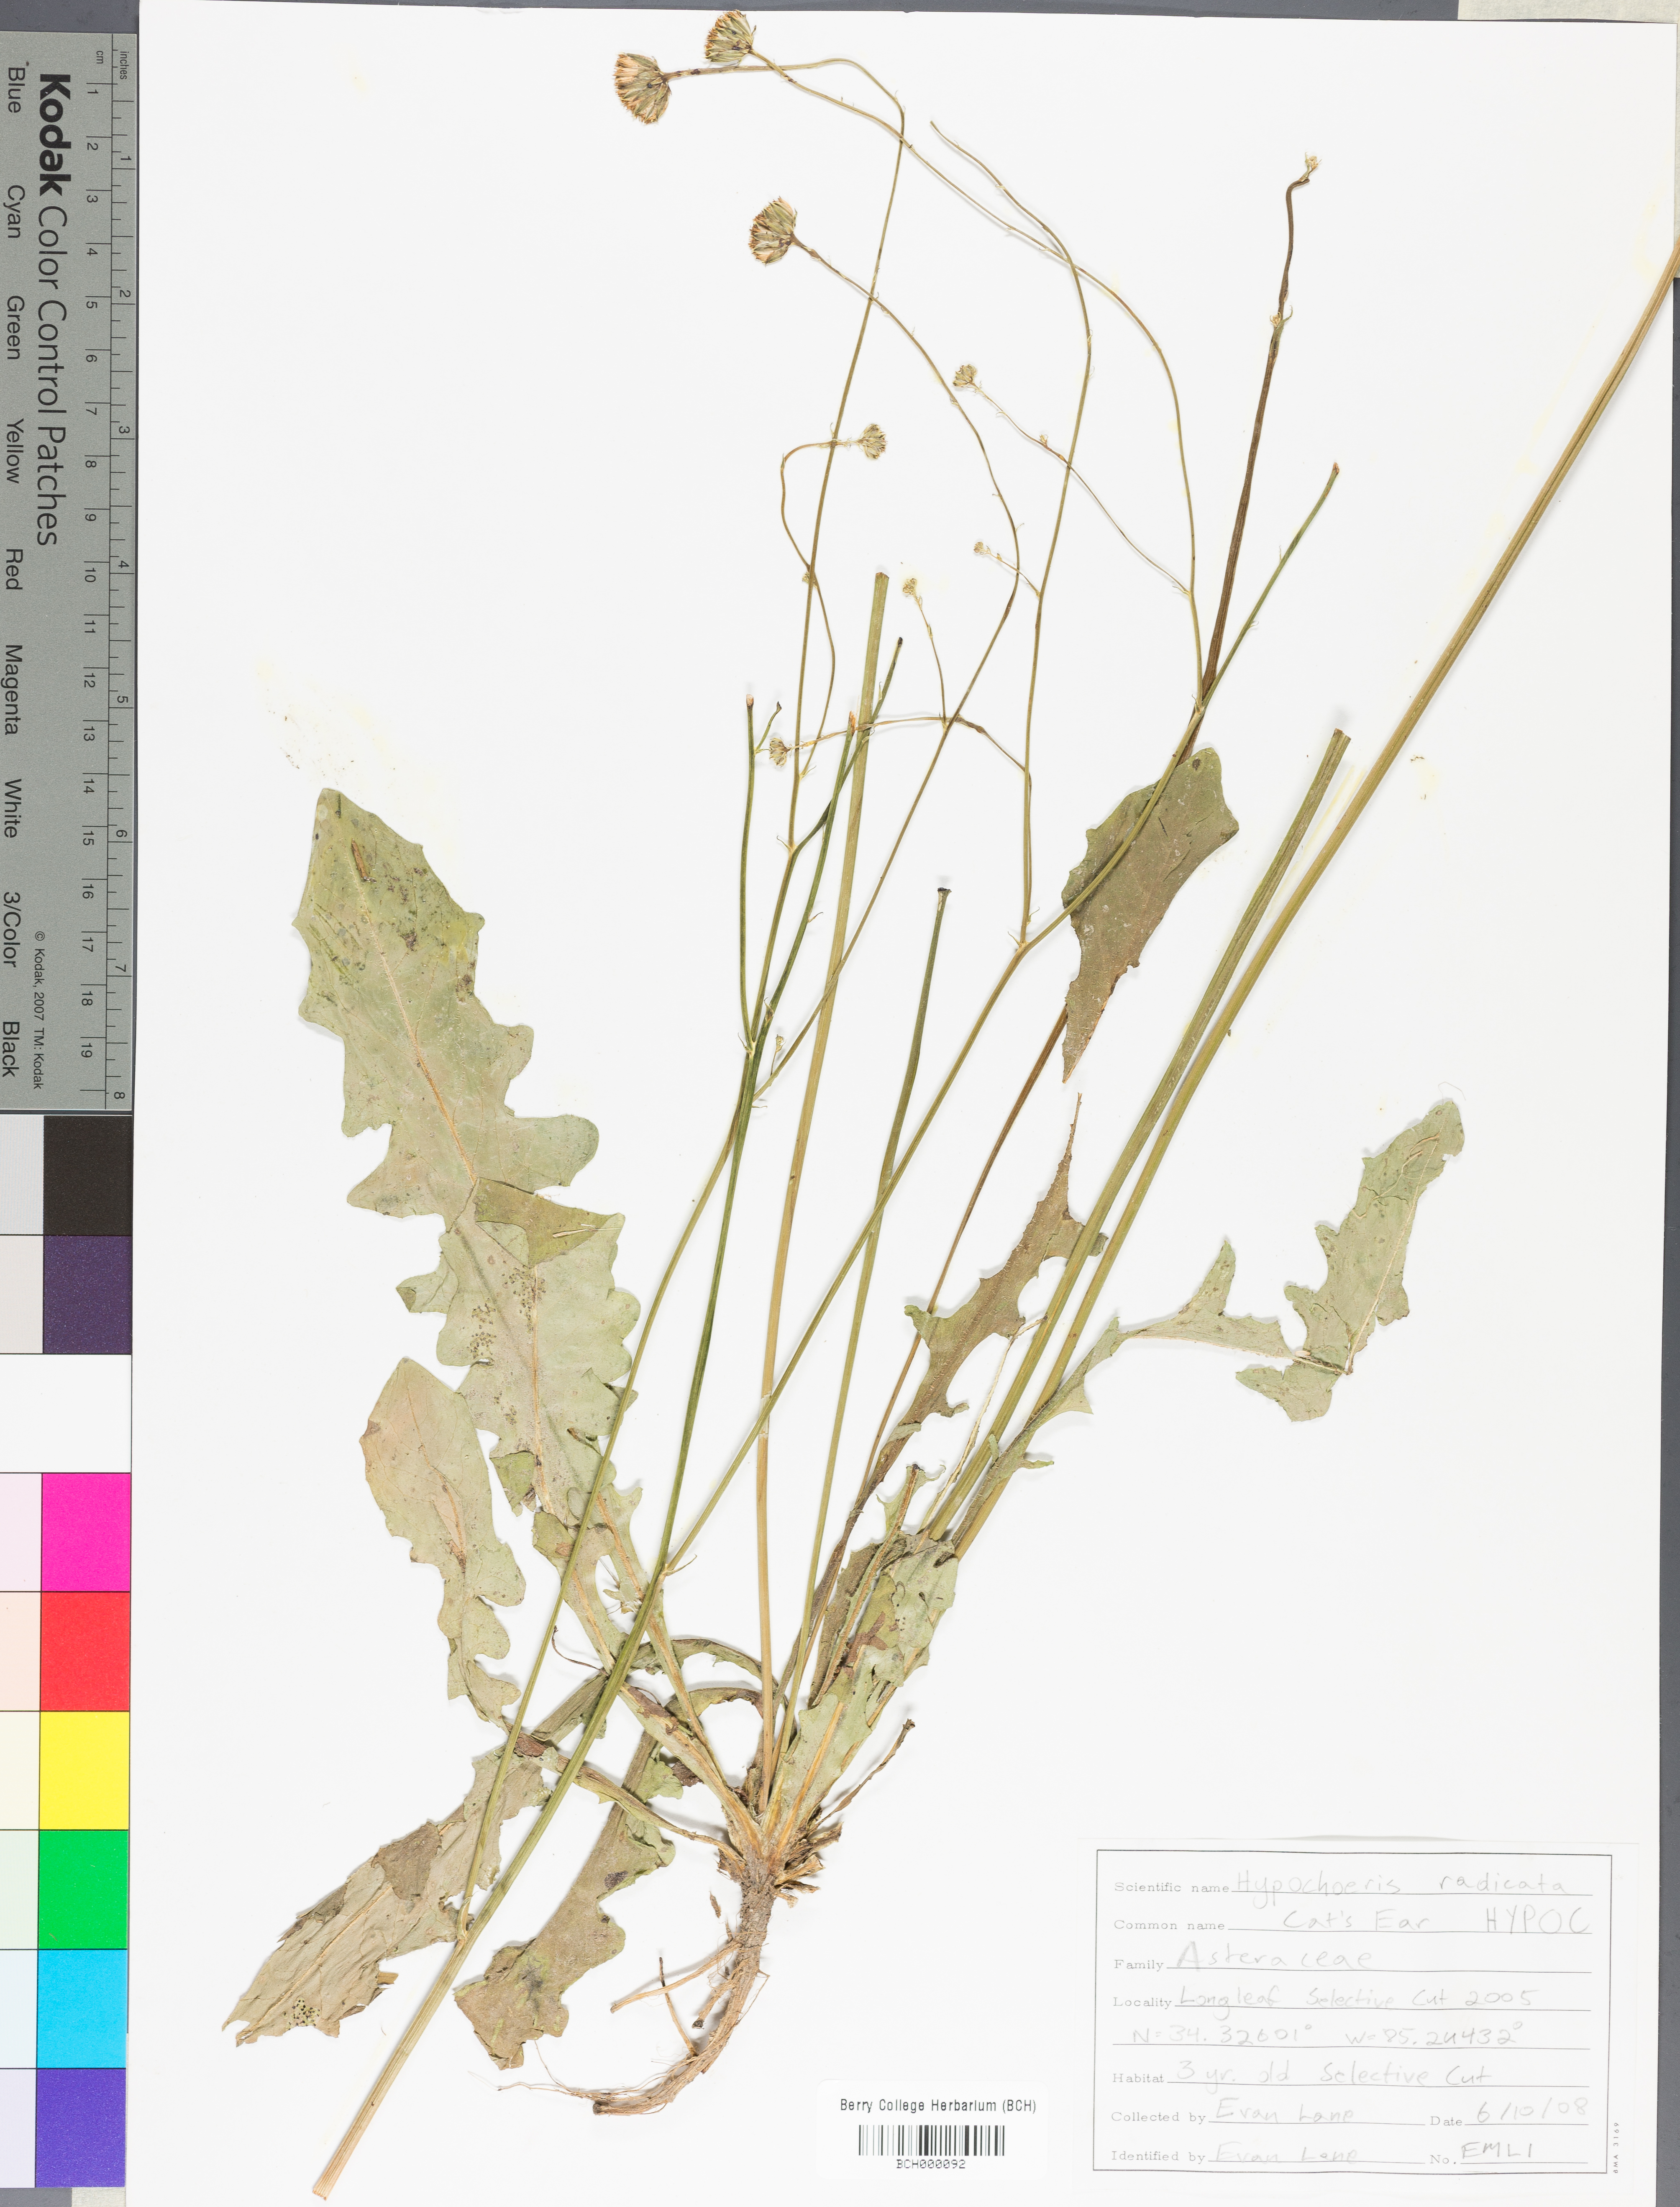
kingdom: Plantae
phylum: Tracheophyta
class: Magnoliopsida
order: Asterales
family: Asteraceae
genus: Hypochaeris
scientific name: Hypochaeris
